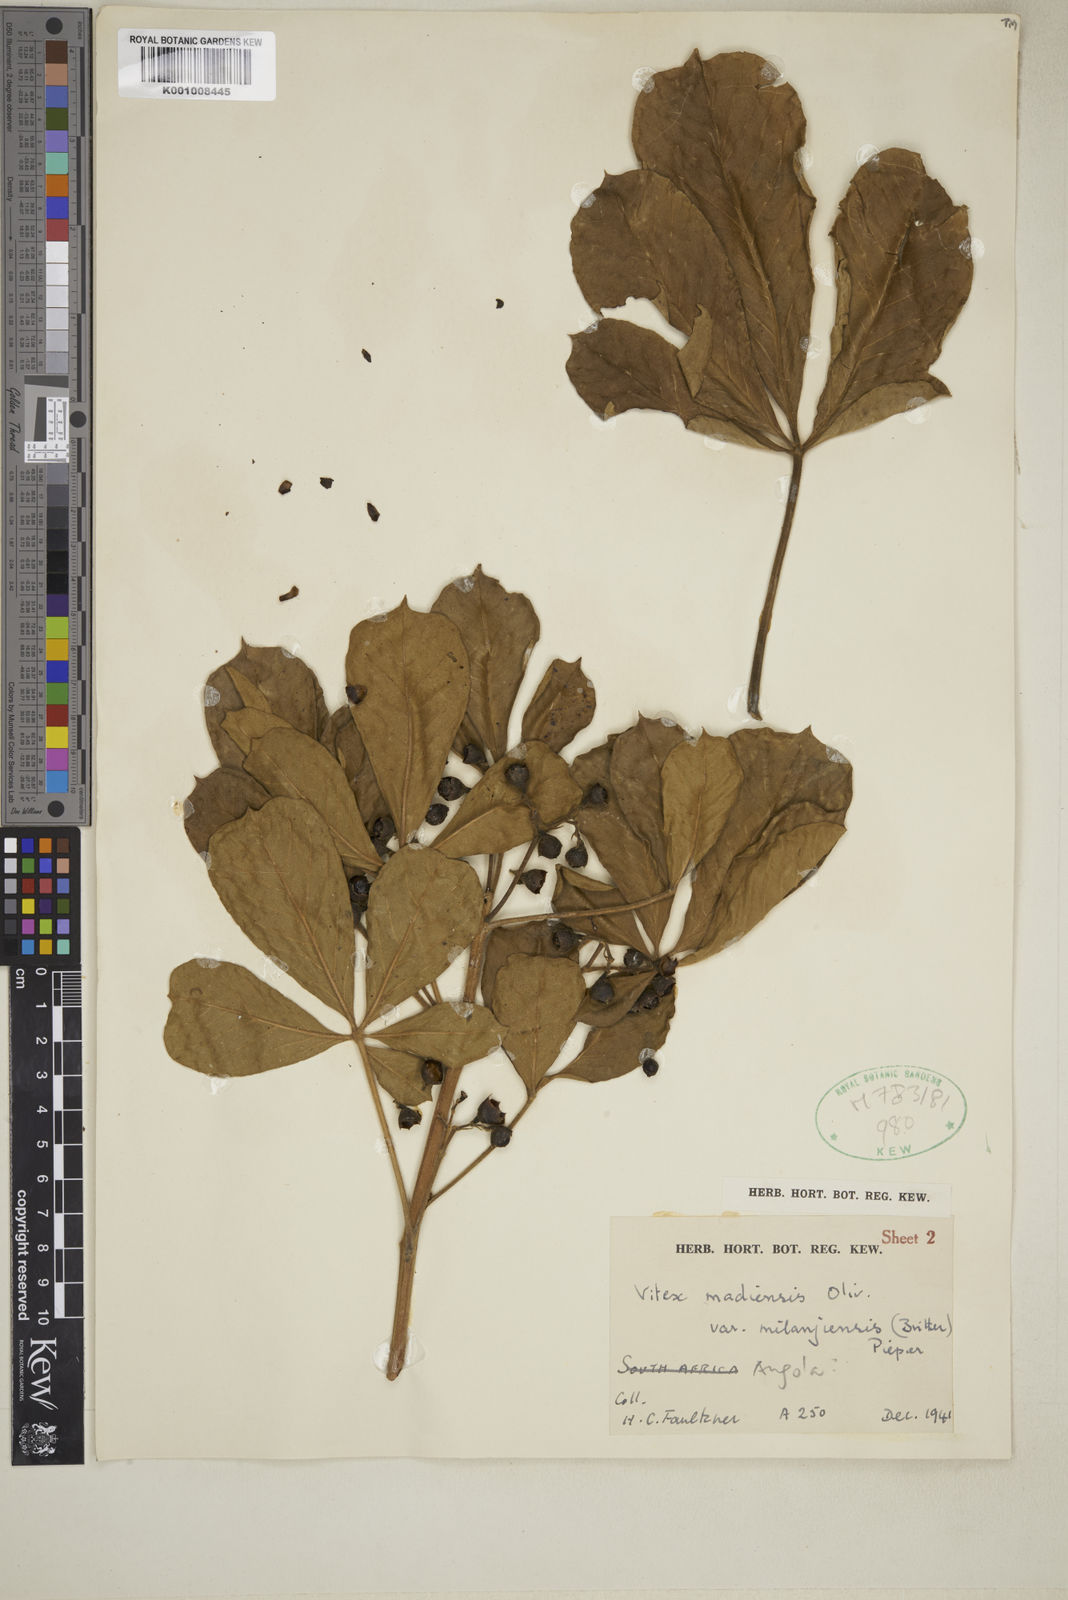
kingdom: Plantae
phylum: Tracheophyta
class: Magnoliopsida
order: Lamiales
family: Lamiaceae
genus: Vitex
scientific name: Vitex madiensis
